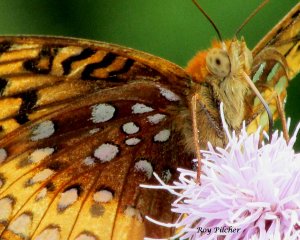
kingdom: Animalia
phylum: Arthropoda
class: Insecta
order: Lepidoptera
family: Nymphalidae
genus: Speyeria
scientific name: Speyeria cybele
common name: Great Spangled Fritillary
